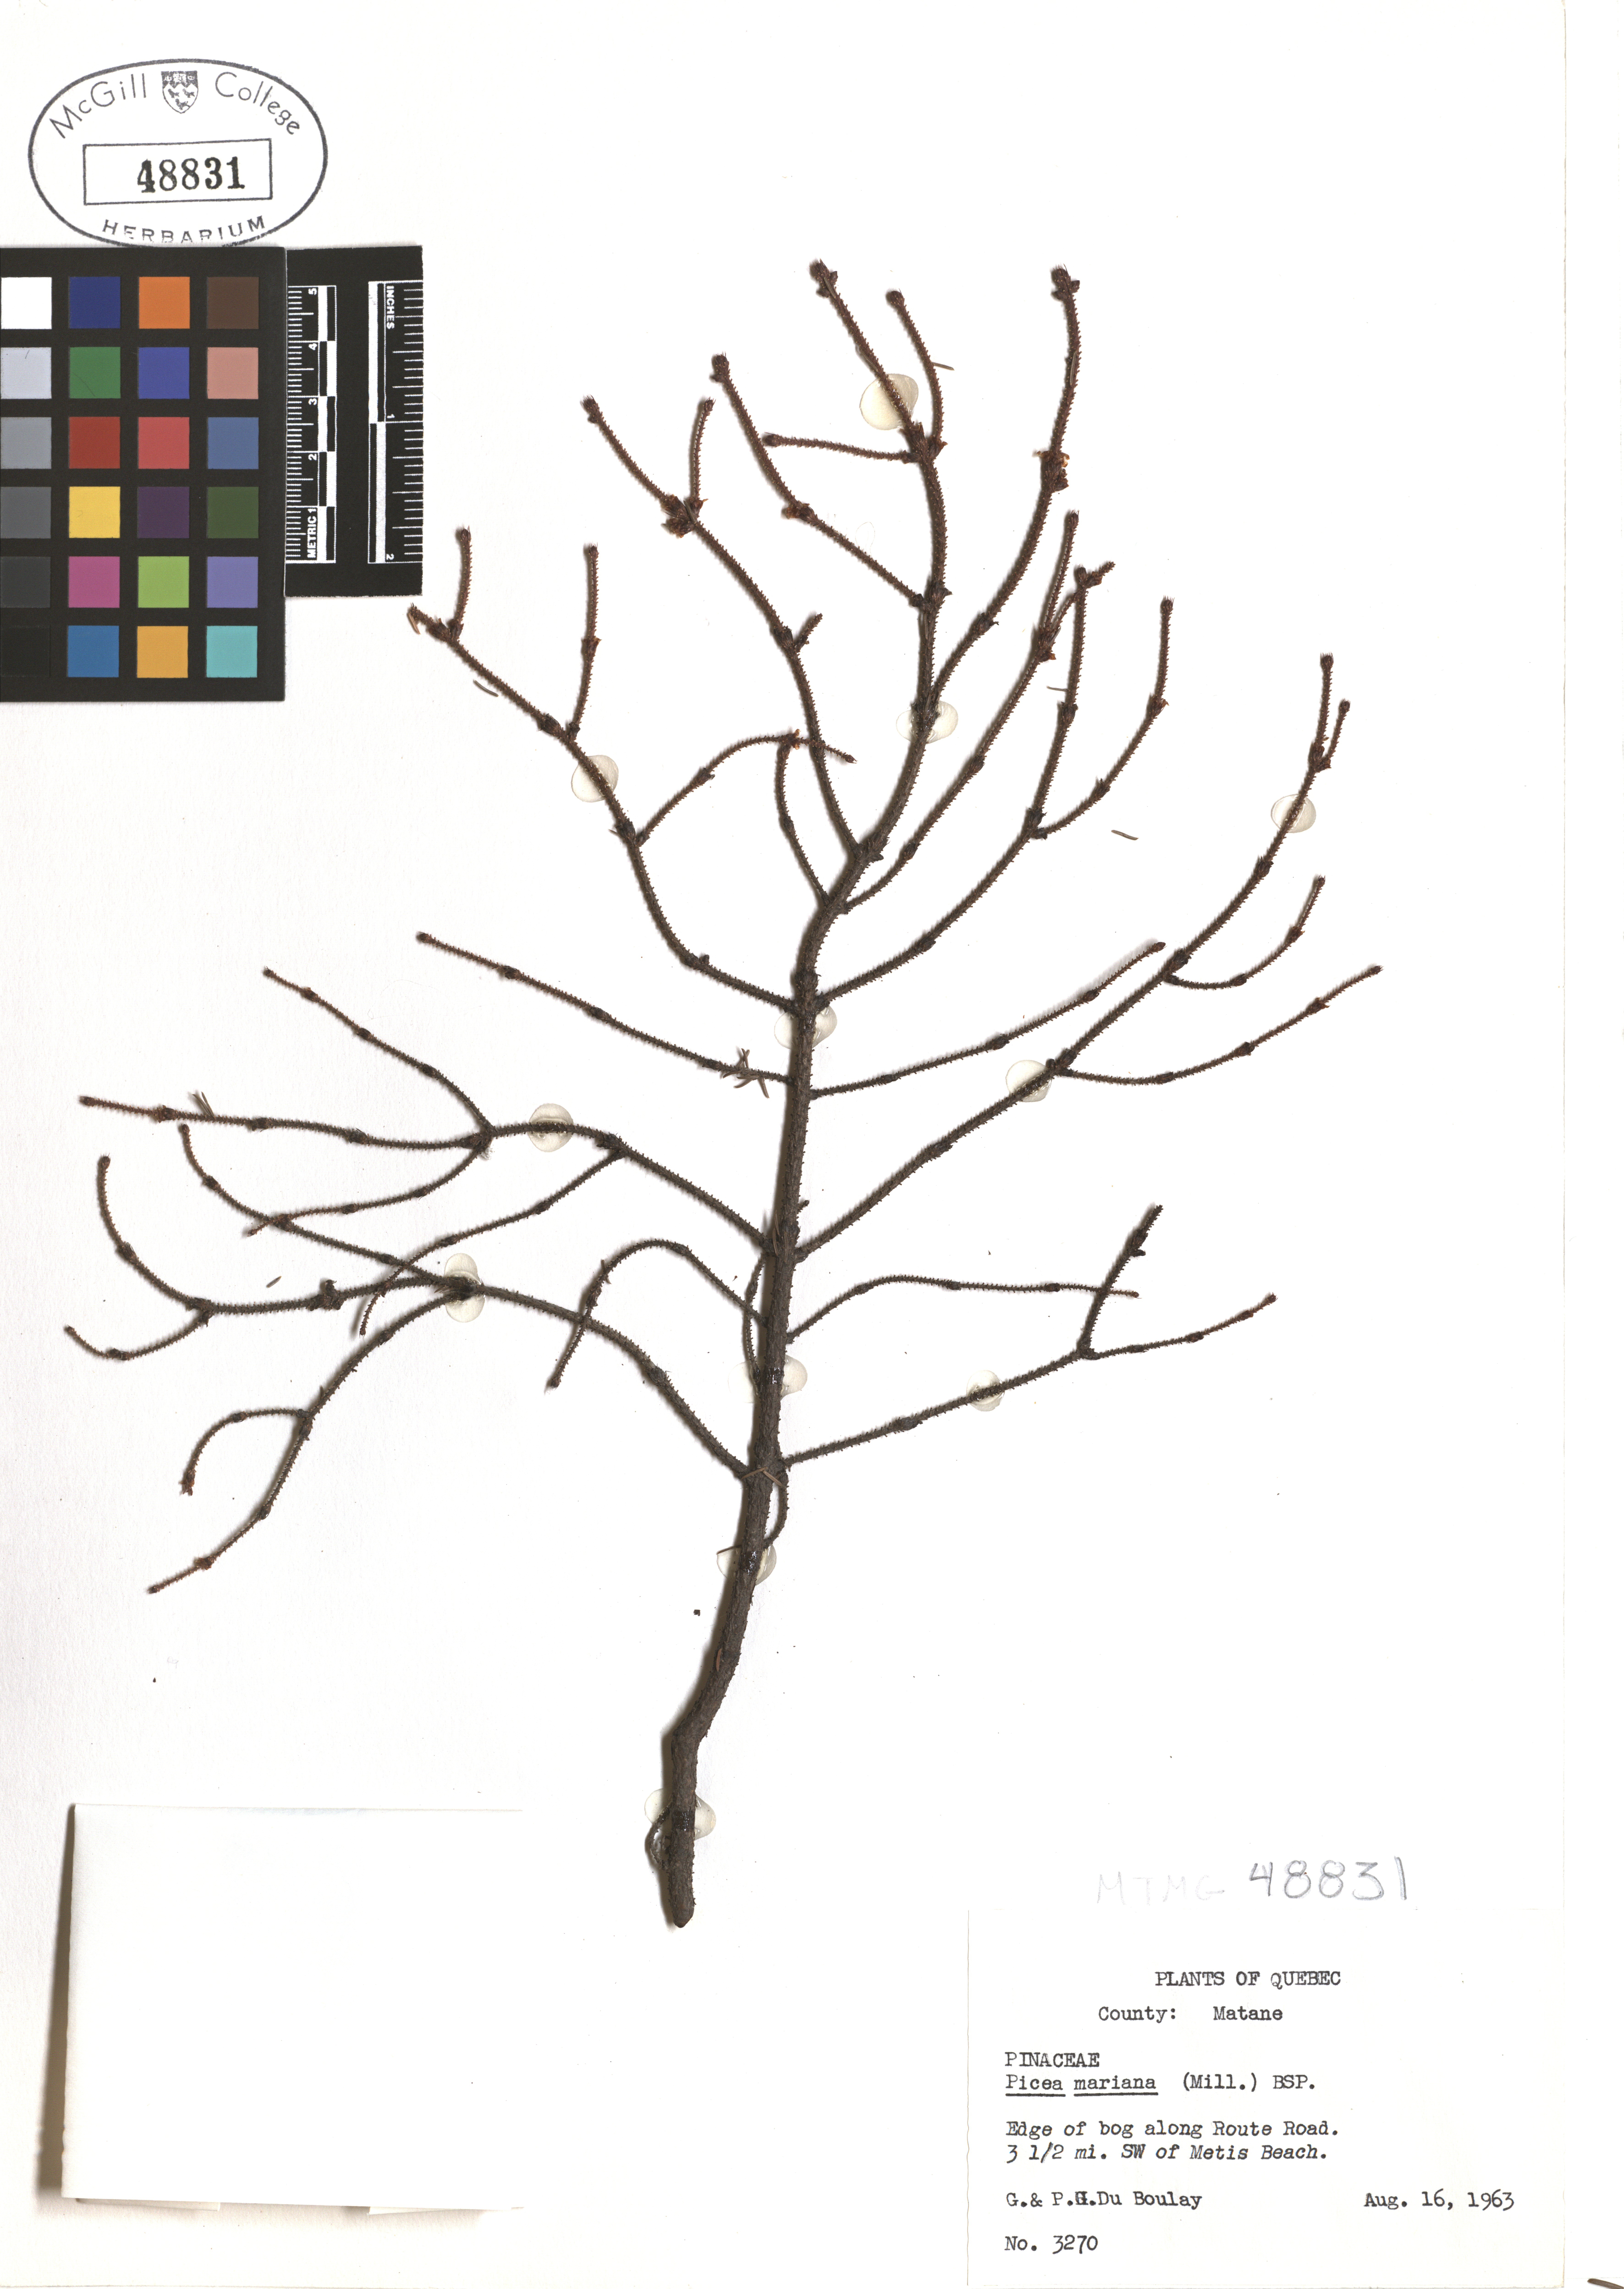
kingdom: Plantae
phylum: Tracheophyta
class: Pinopsida
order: Pinales
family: Pinaceae
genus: Picea
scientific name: Picea mariana
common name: Black spruce
